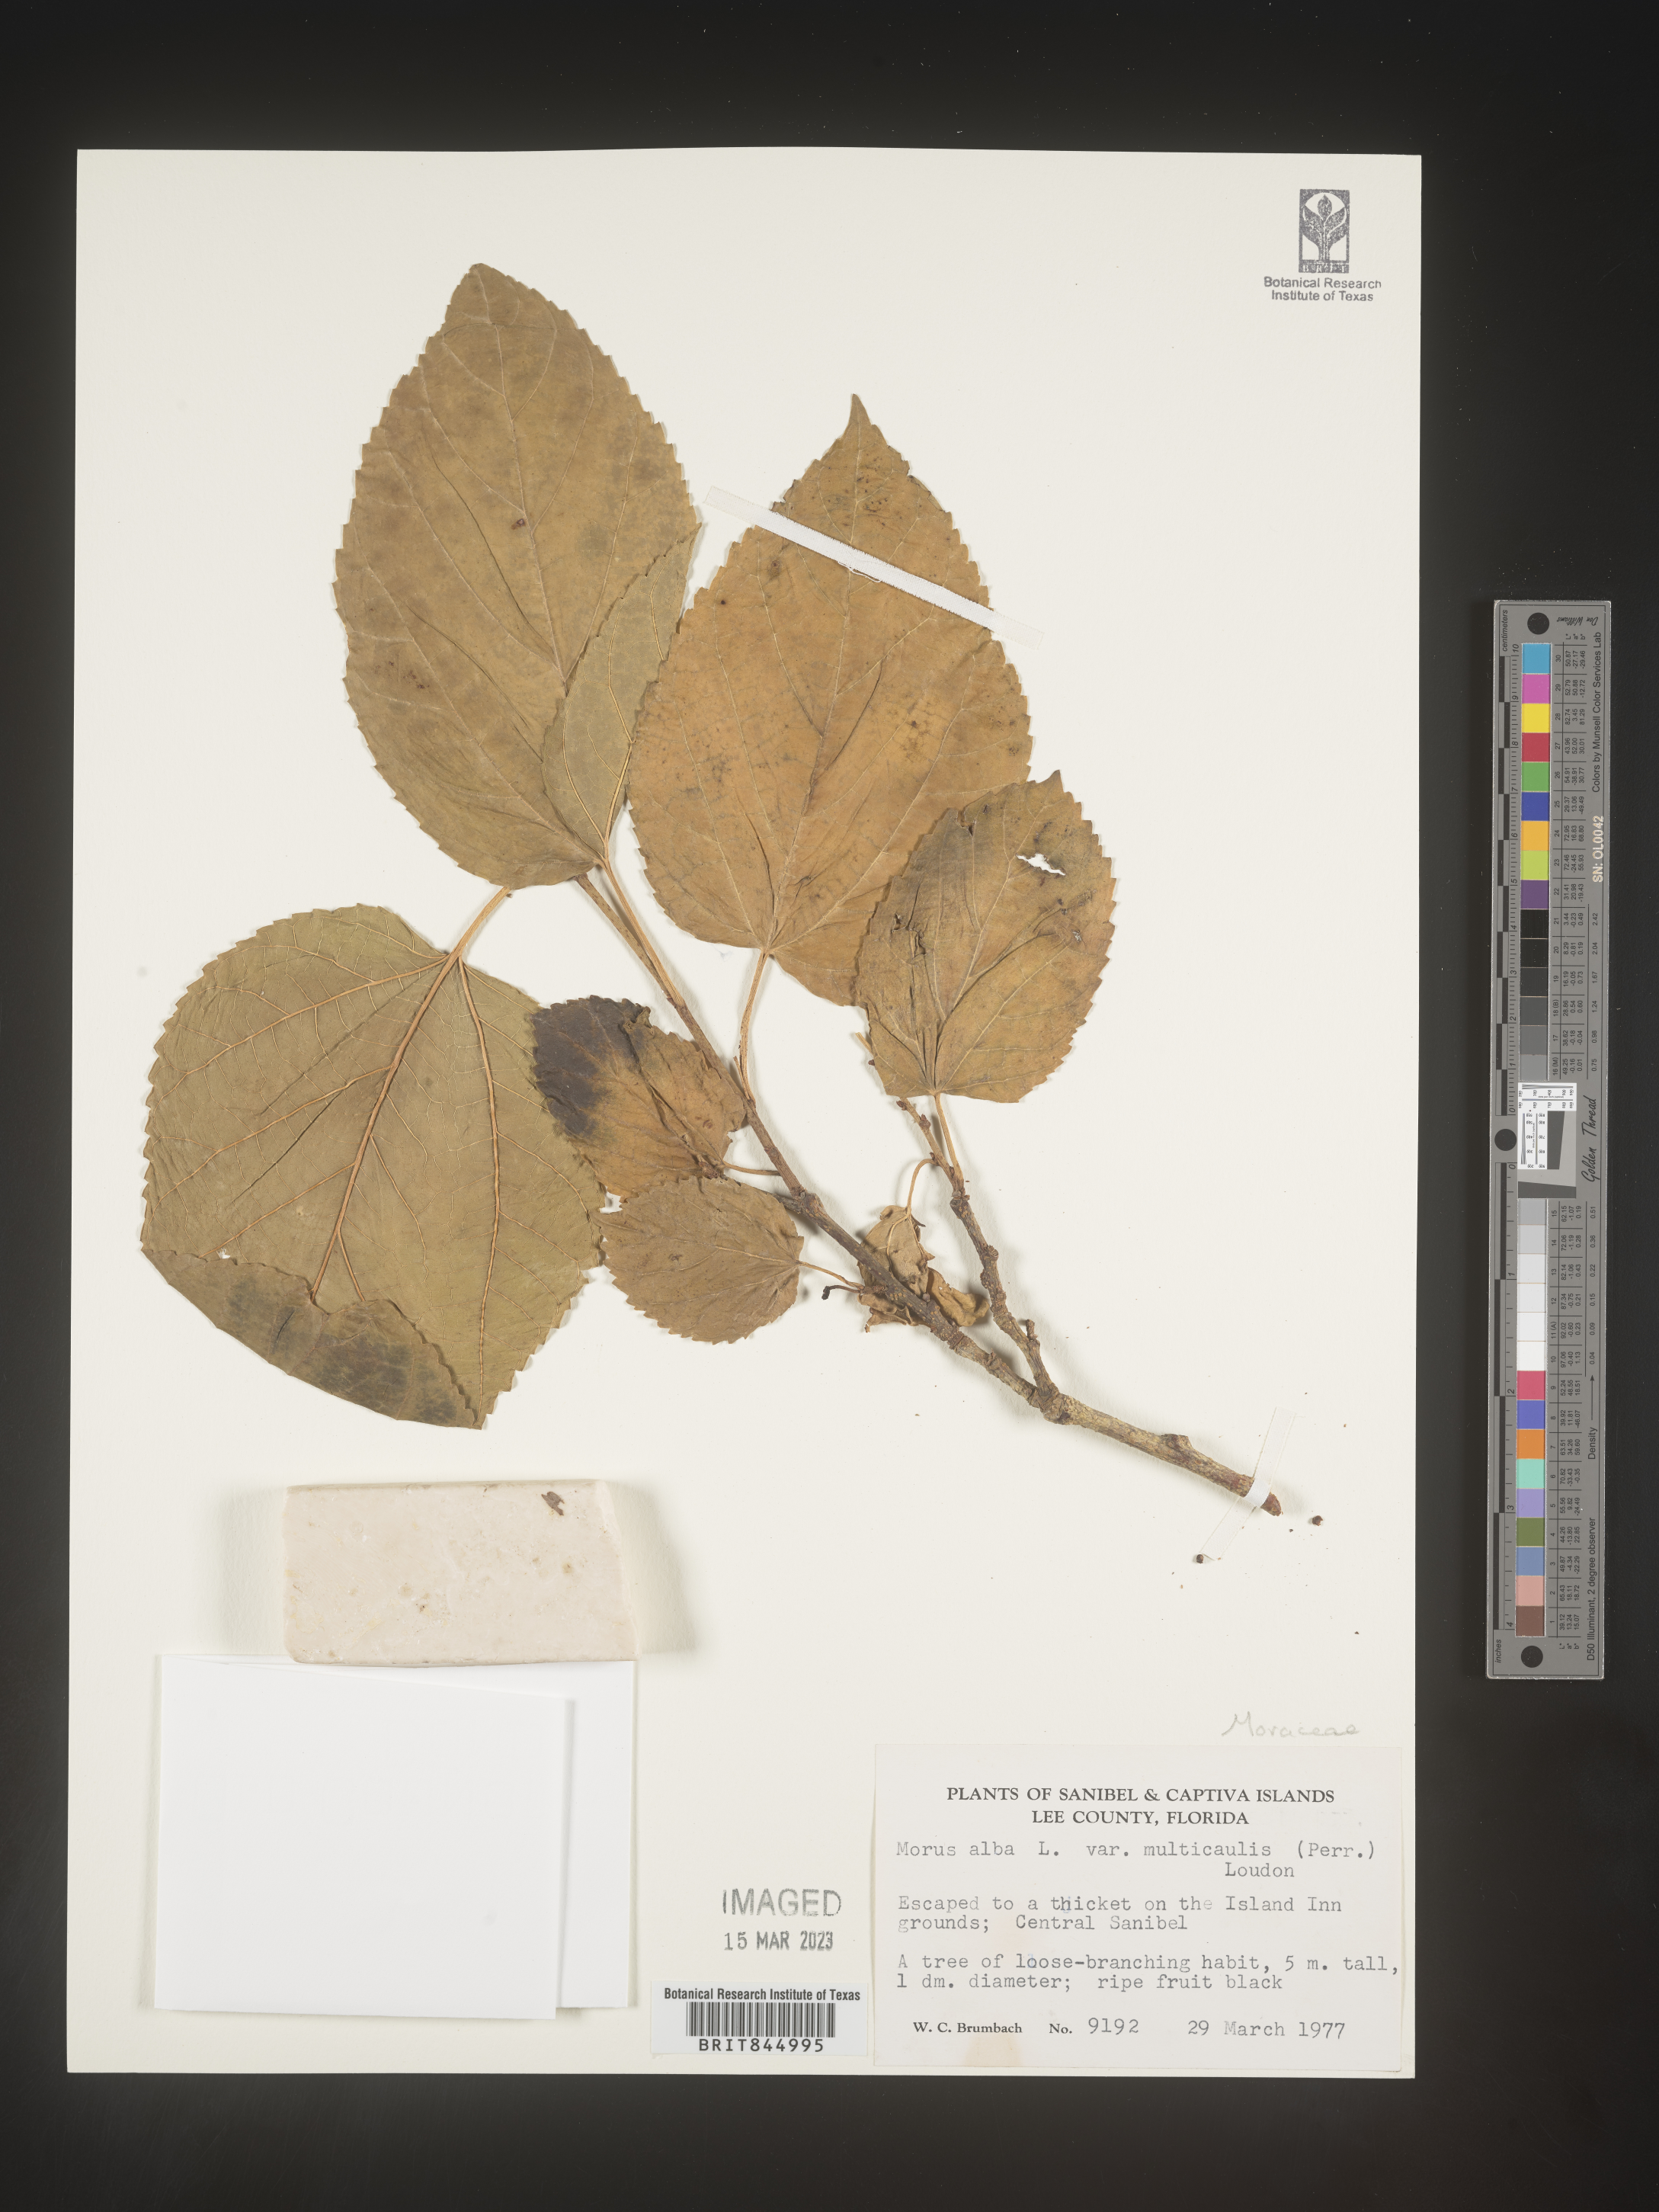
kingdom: Plantae
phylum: Tracheophyta
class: Magnoliopsida
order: Rosales
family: Moraceae
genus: Morus
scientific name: Morus alba
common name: White mulberry
